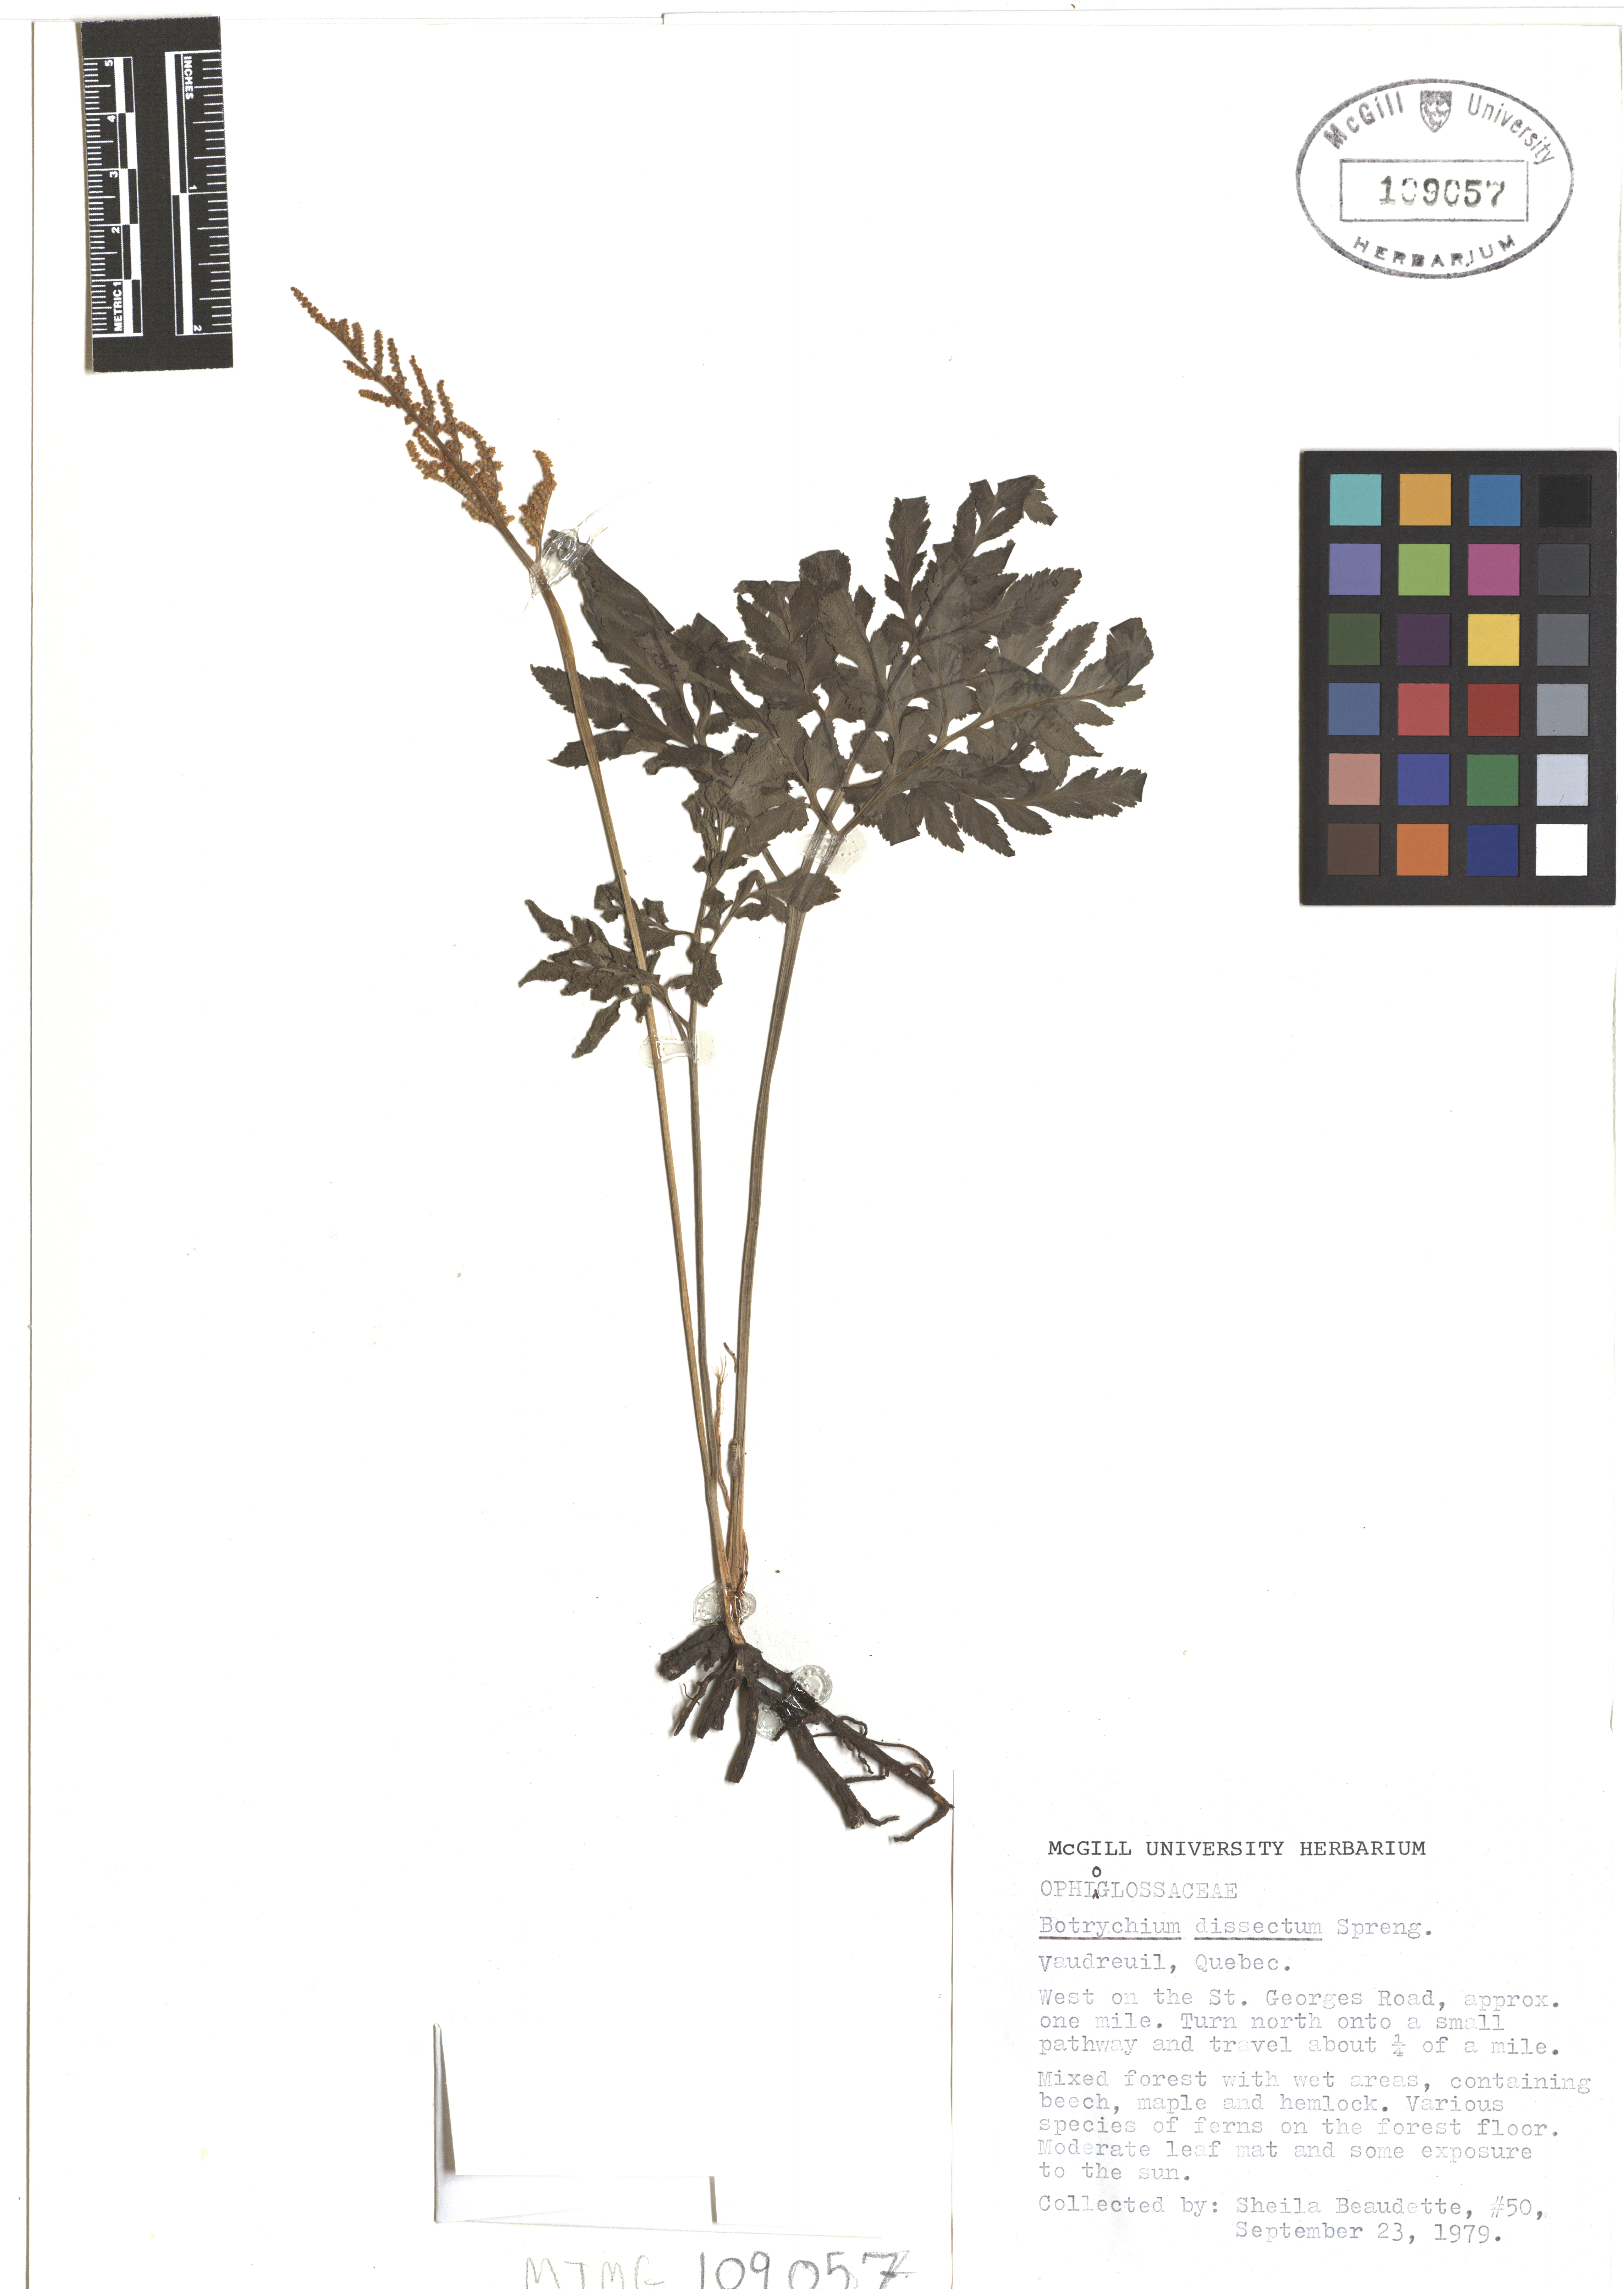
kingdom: Plantae
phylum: Tracheophyta
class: Polypodiopsida
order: Ophioglossales
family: Ophioglossaceae
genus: Sceptridium
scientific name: Sceptridium dissectum
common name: Cut-leaved grapefern
